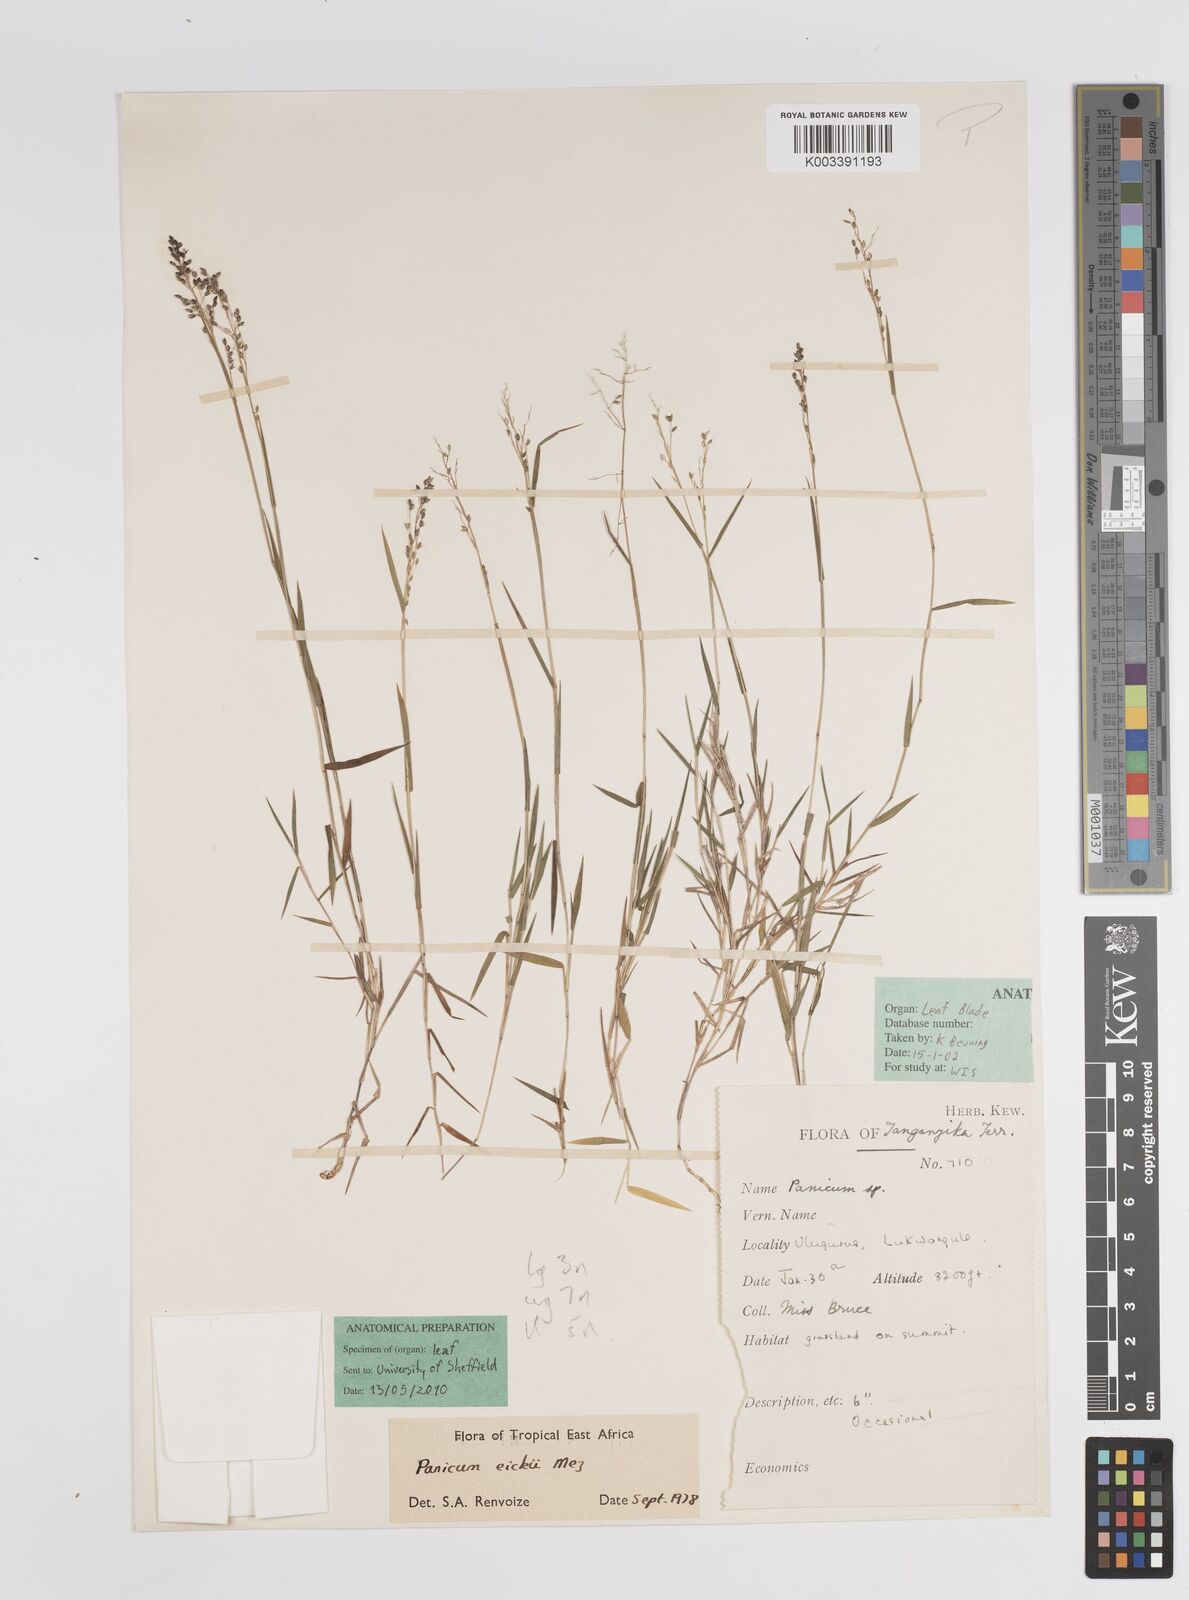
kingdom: Plantae
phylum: Tracheophyta
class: Liliopsida
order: Poales
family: Poaceae
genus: Panicum
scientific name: Panicum eickii
